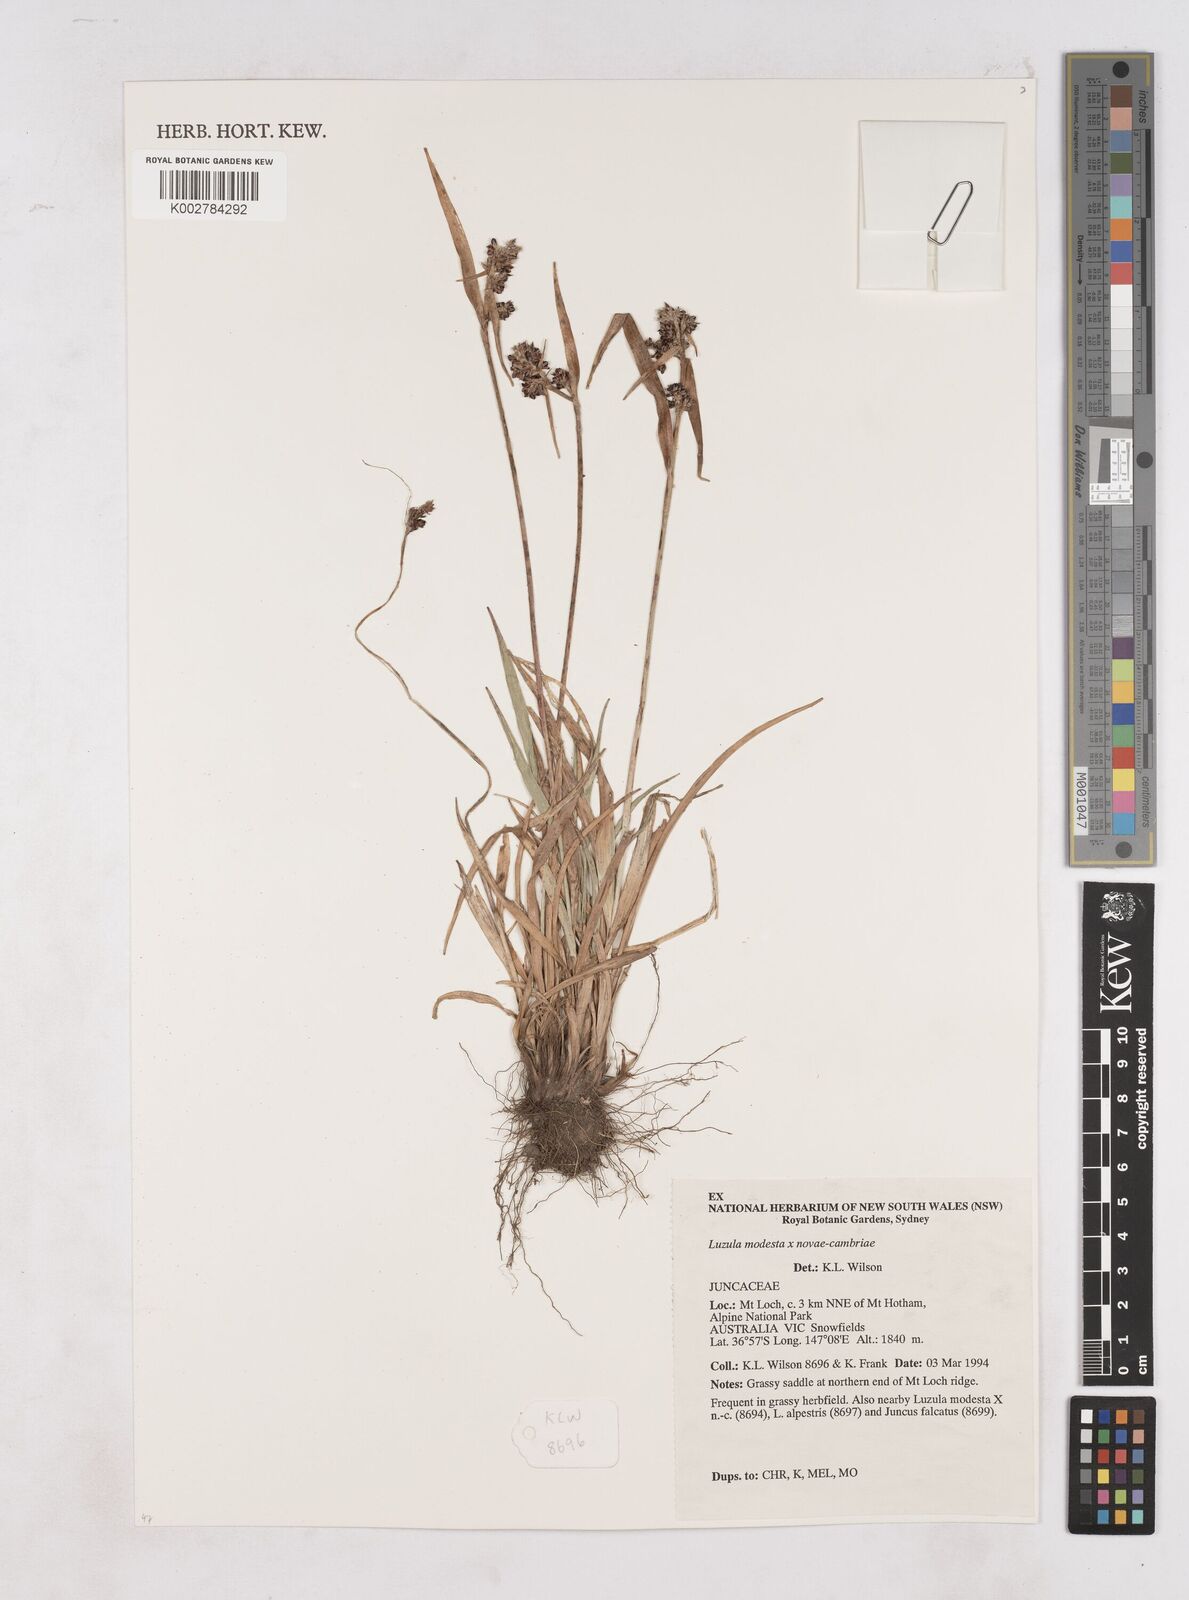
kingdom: Plantae
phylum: Tracheophyta
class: Liliopsida
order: Poales
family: Juncaceae
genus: Luzula
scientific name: Luzula modesta
